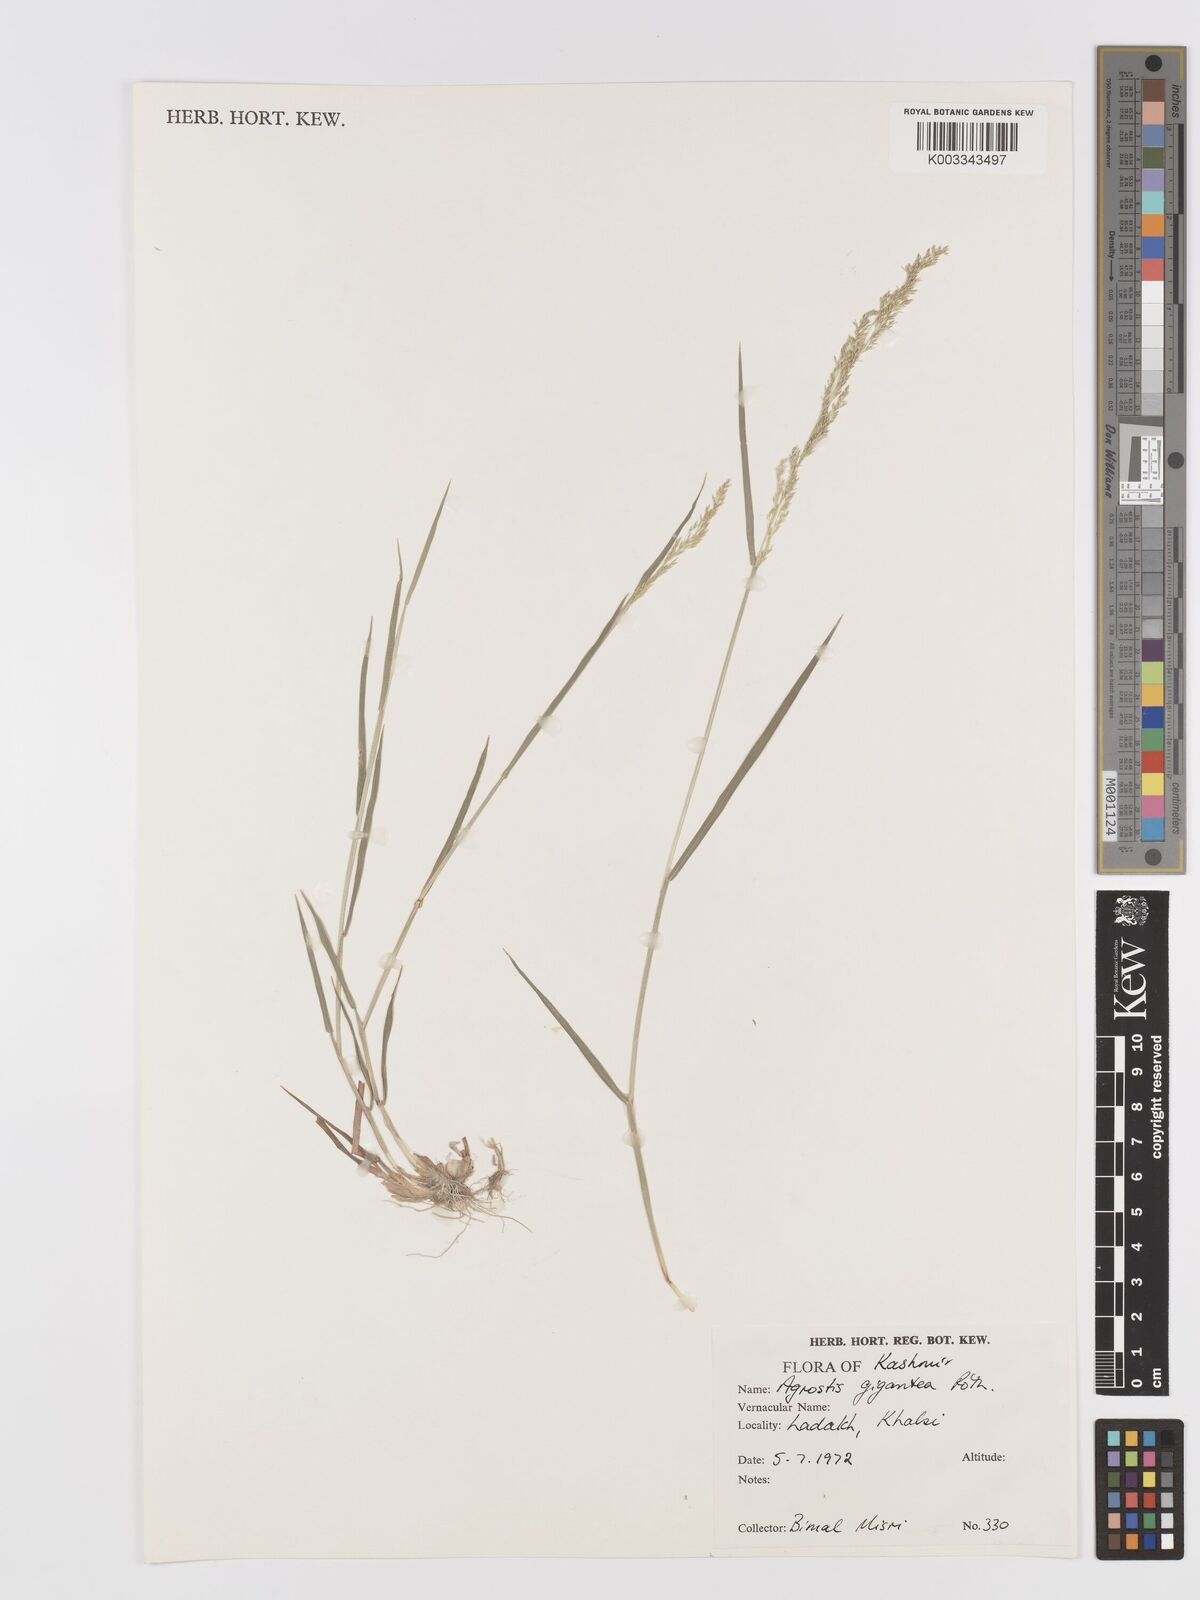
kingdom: Plantae
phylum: Tracheophyta
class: Liliopsida
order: Poales
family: Poaceae
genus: Agrostis
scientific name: Agrostis gigantea
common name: Black bent
